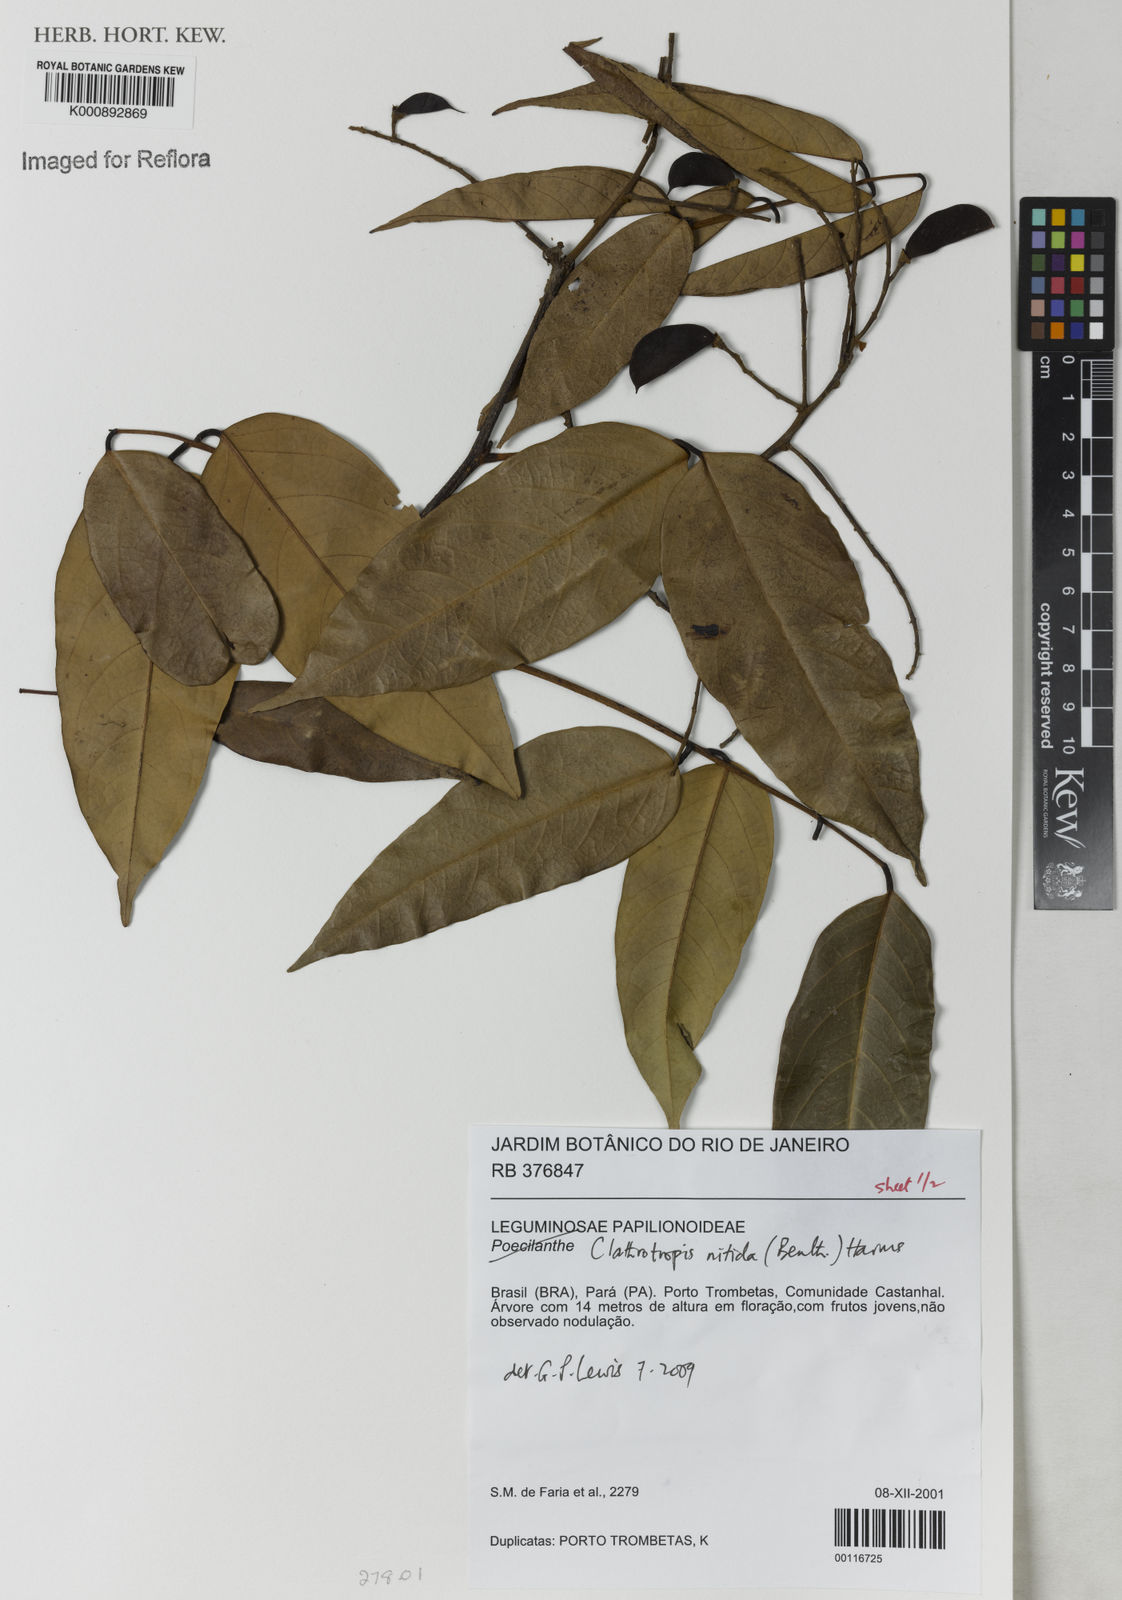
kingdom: Plantae
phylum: Tracheophyta
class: Magnoliopsida
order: Fabales
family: Fabaceae
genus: Clathrotropis
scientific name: Clathrotropis nitida
